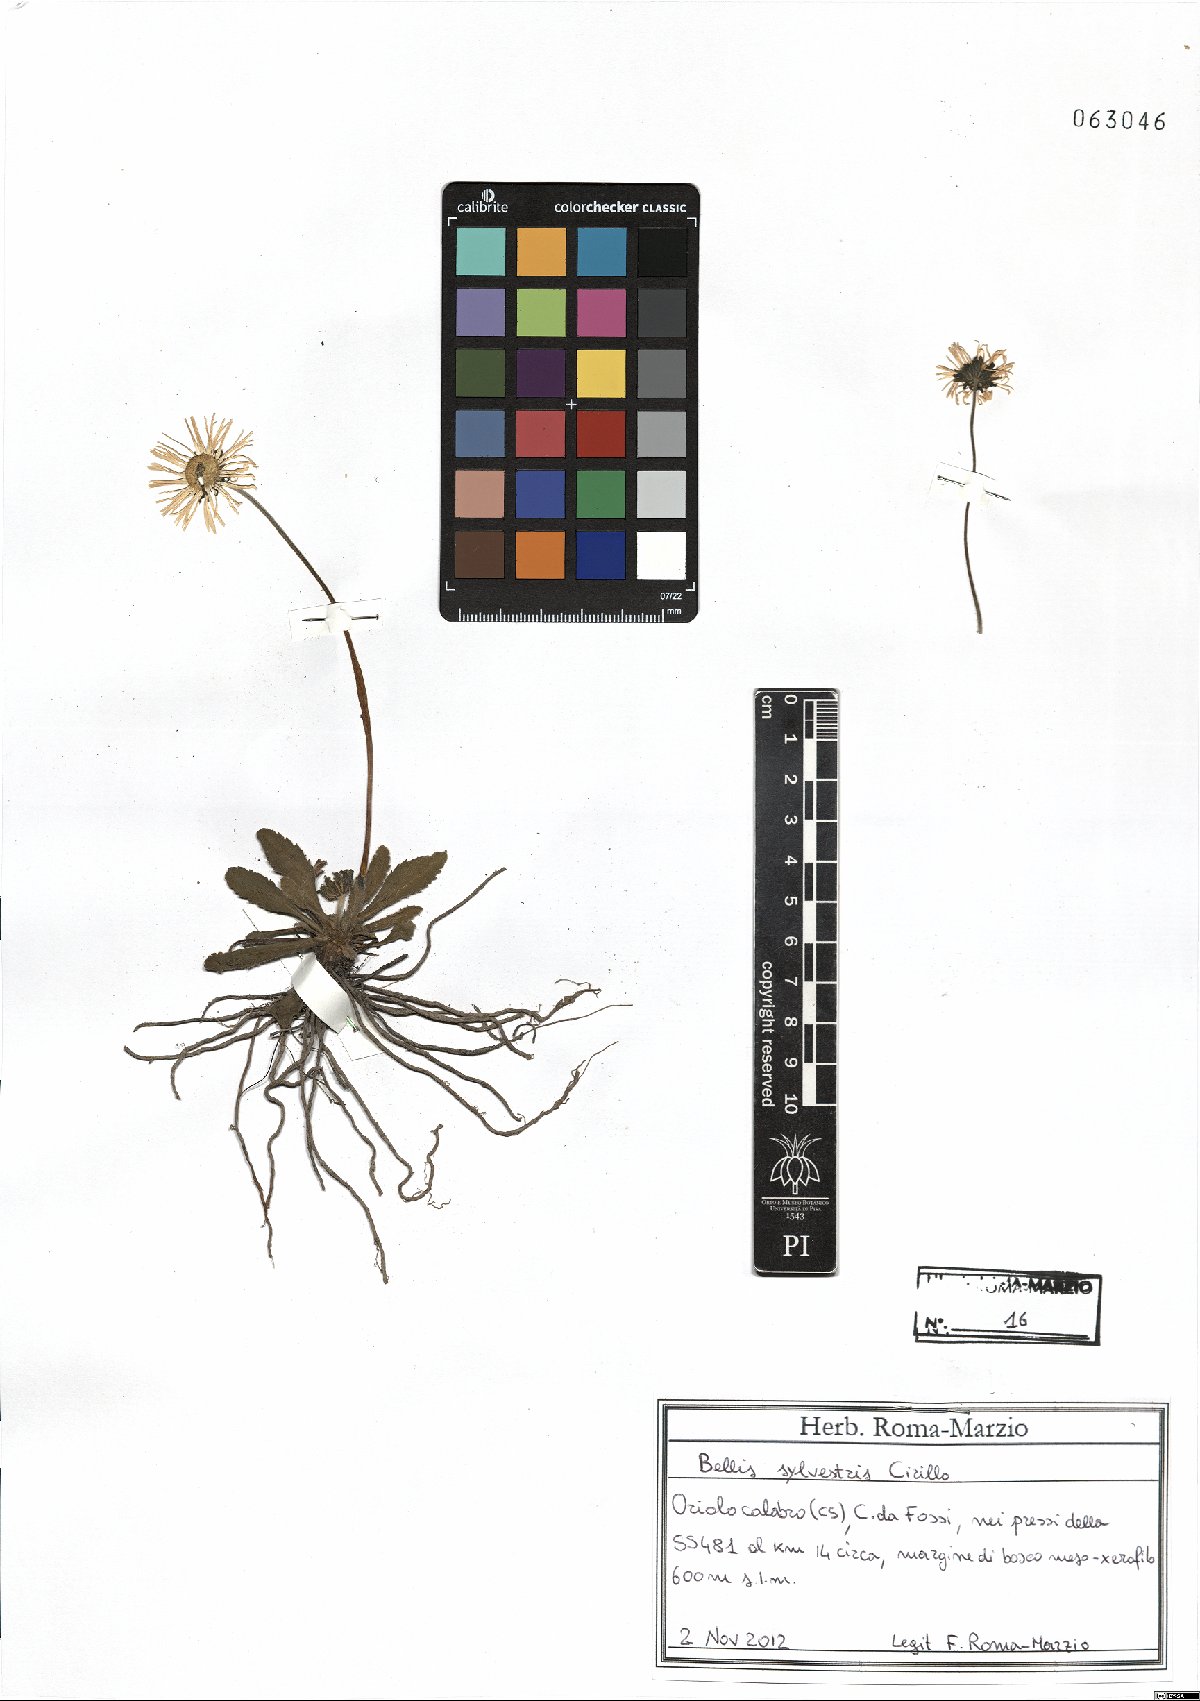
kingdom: Plantae
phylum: Tracheophyta
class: Magnoliopsida
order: Asterales
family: Asteraceae
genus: Bellis
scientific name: Bellis sylvestris
